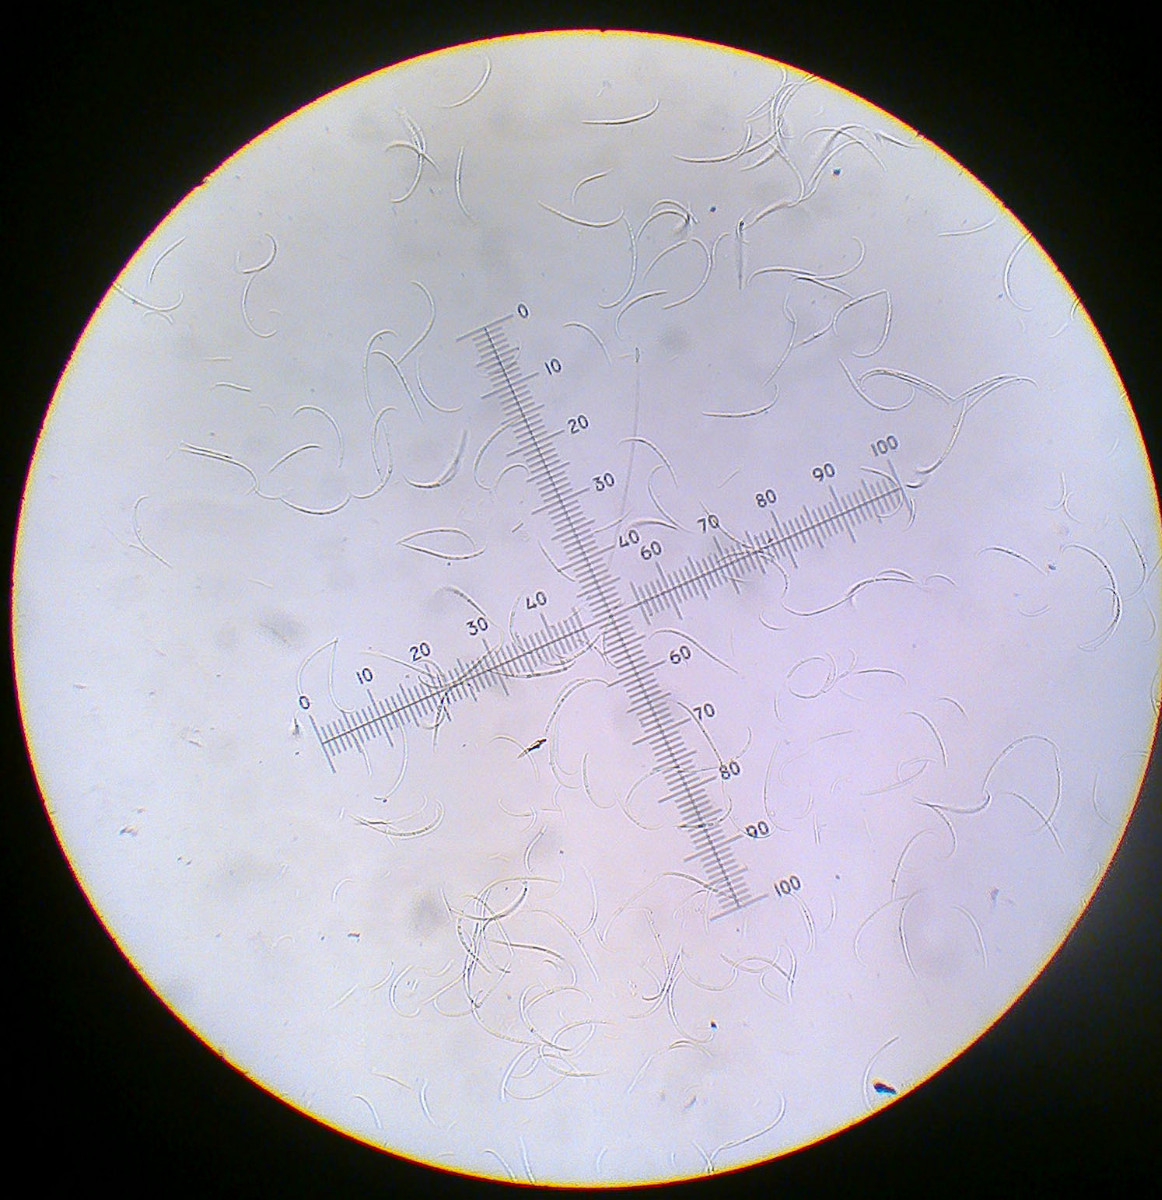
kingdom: Fungi
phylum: Ascomycota
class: Lecanoromycetes
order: Lecanorales
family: Ramalinaceae
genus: Bacidina
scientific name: Bacidina sulphurella
